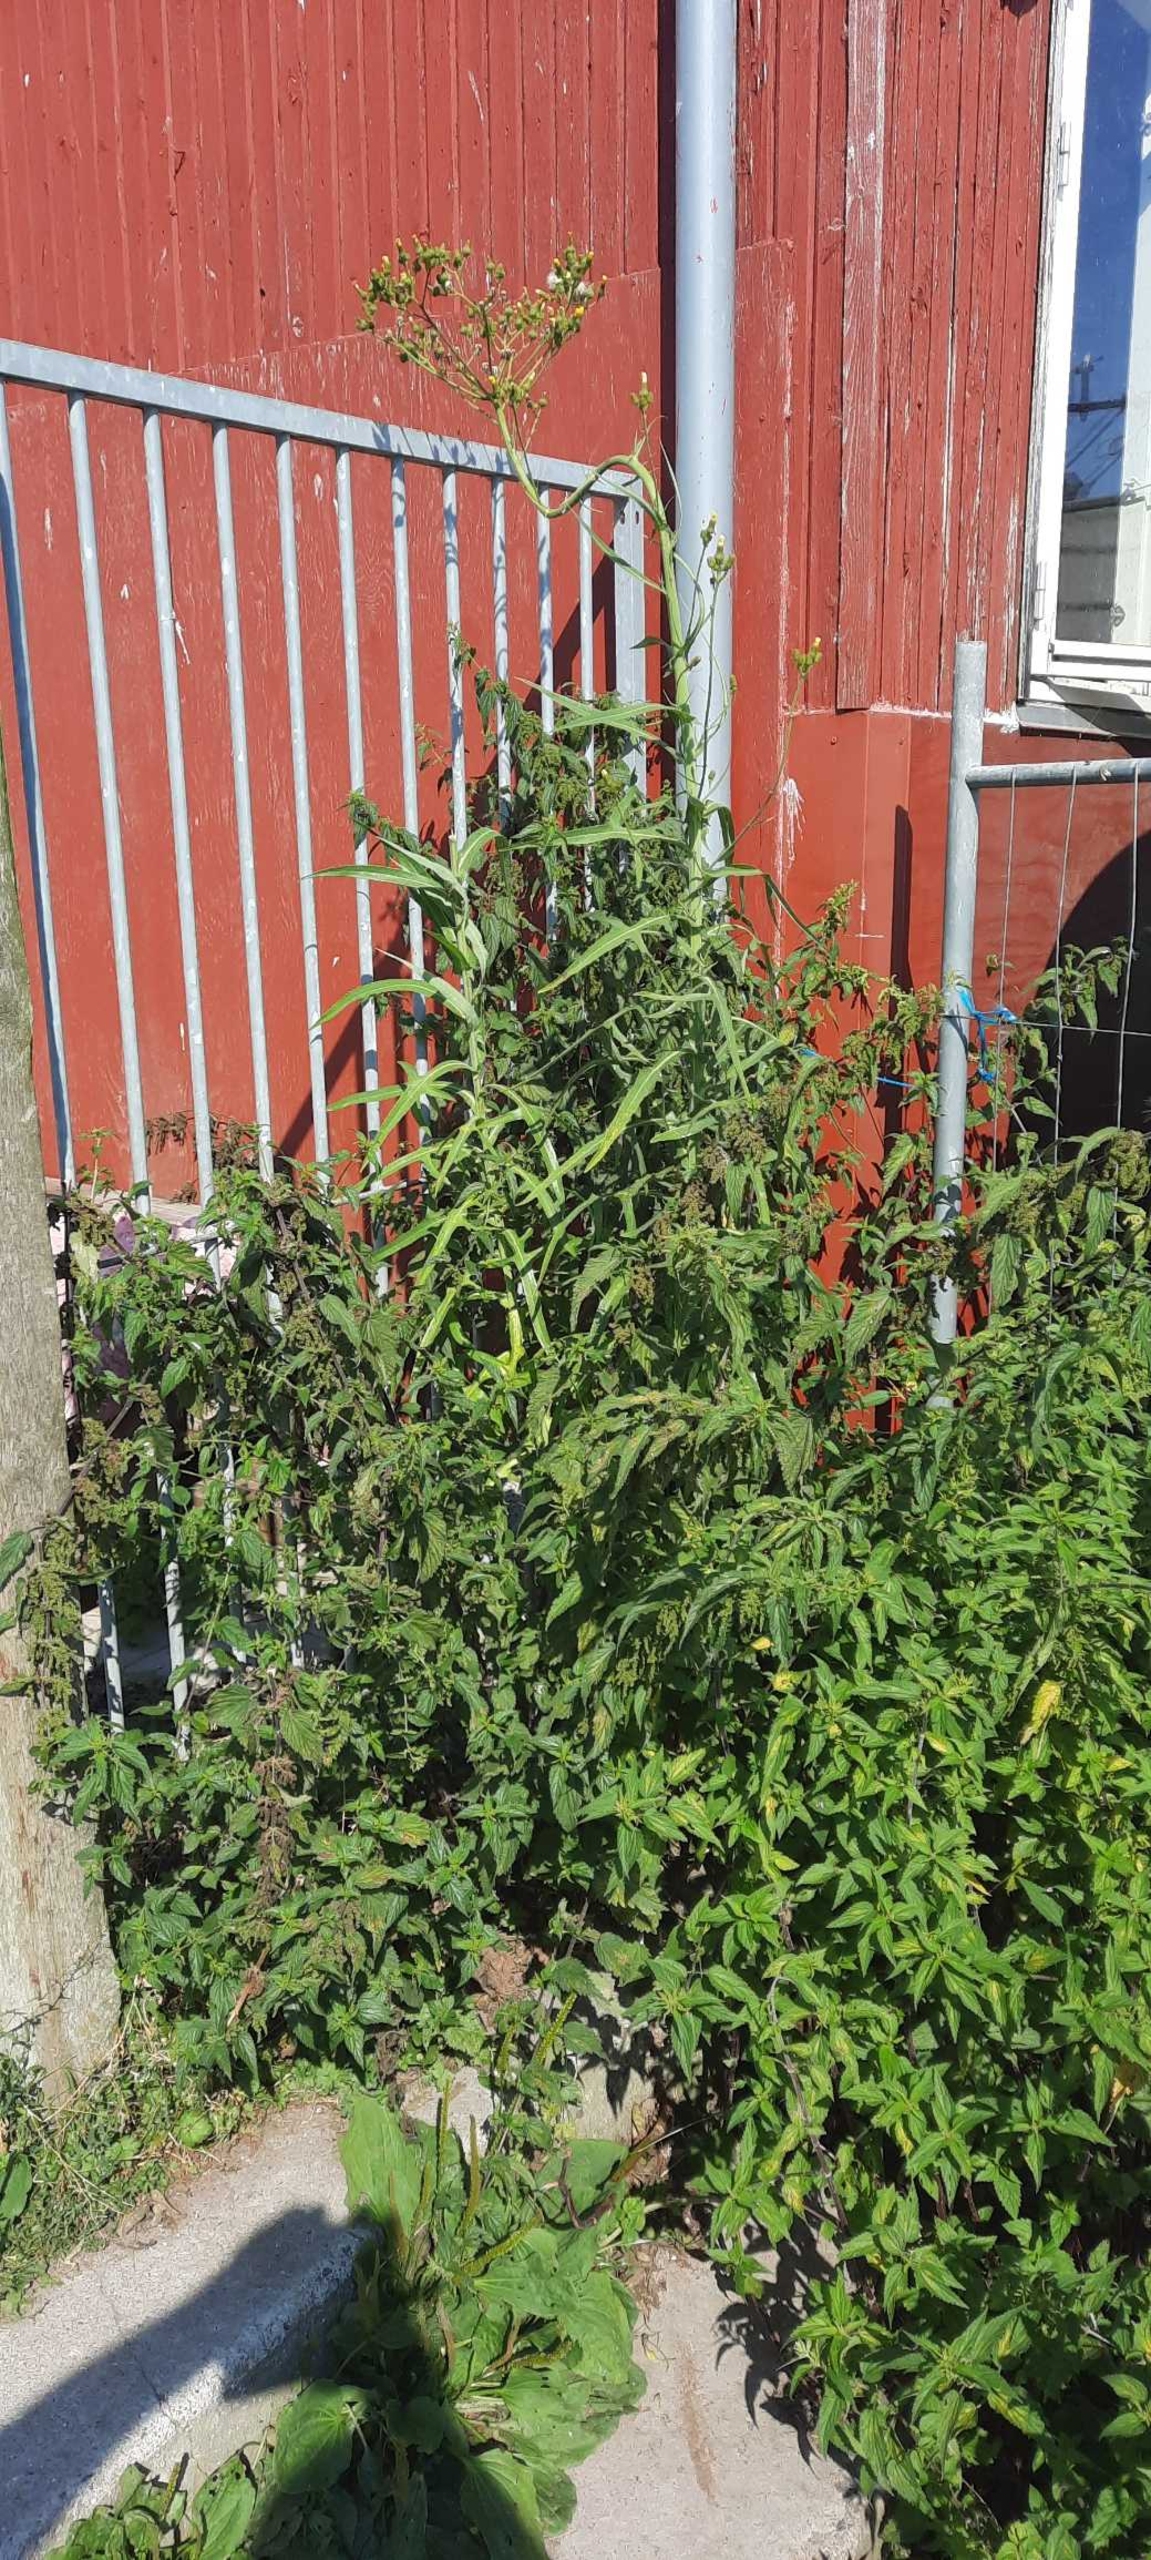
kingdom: Plantae
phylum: Tracheophyta
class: Magnoliopsida
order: Rosales
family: Urticaceae
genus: Urtica
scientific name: Urtica dioica
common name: Stor nælde
